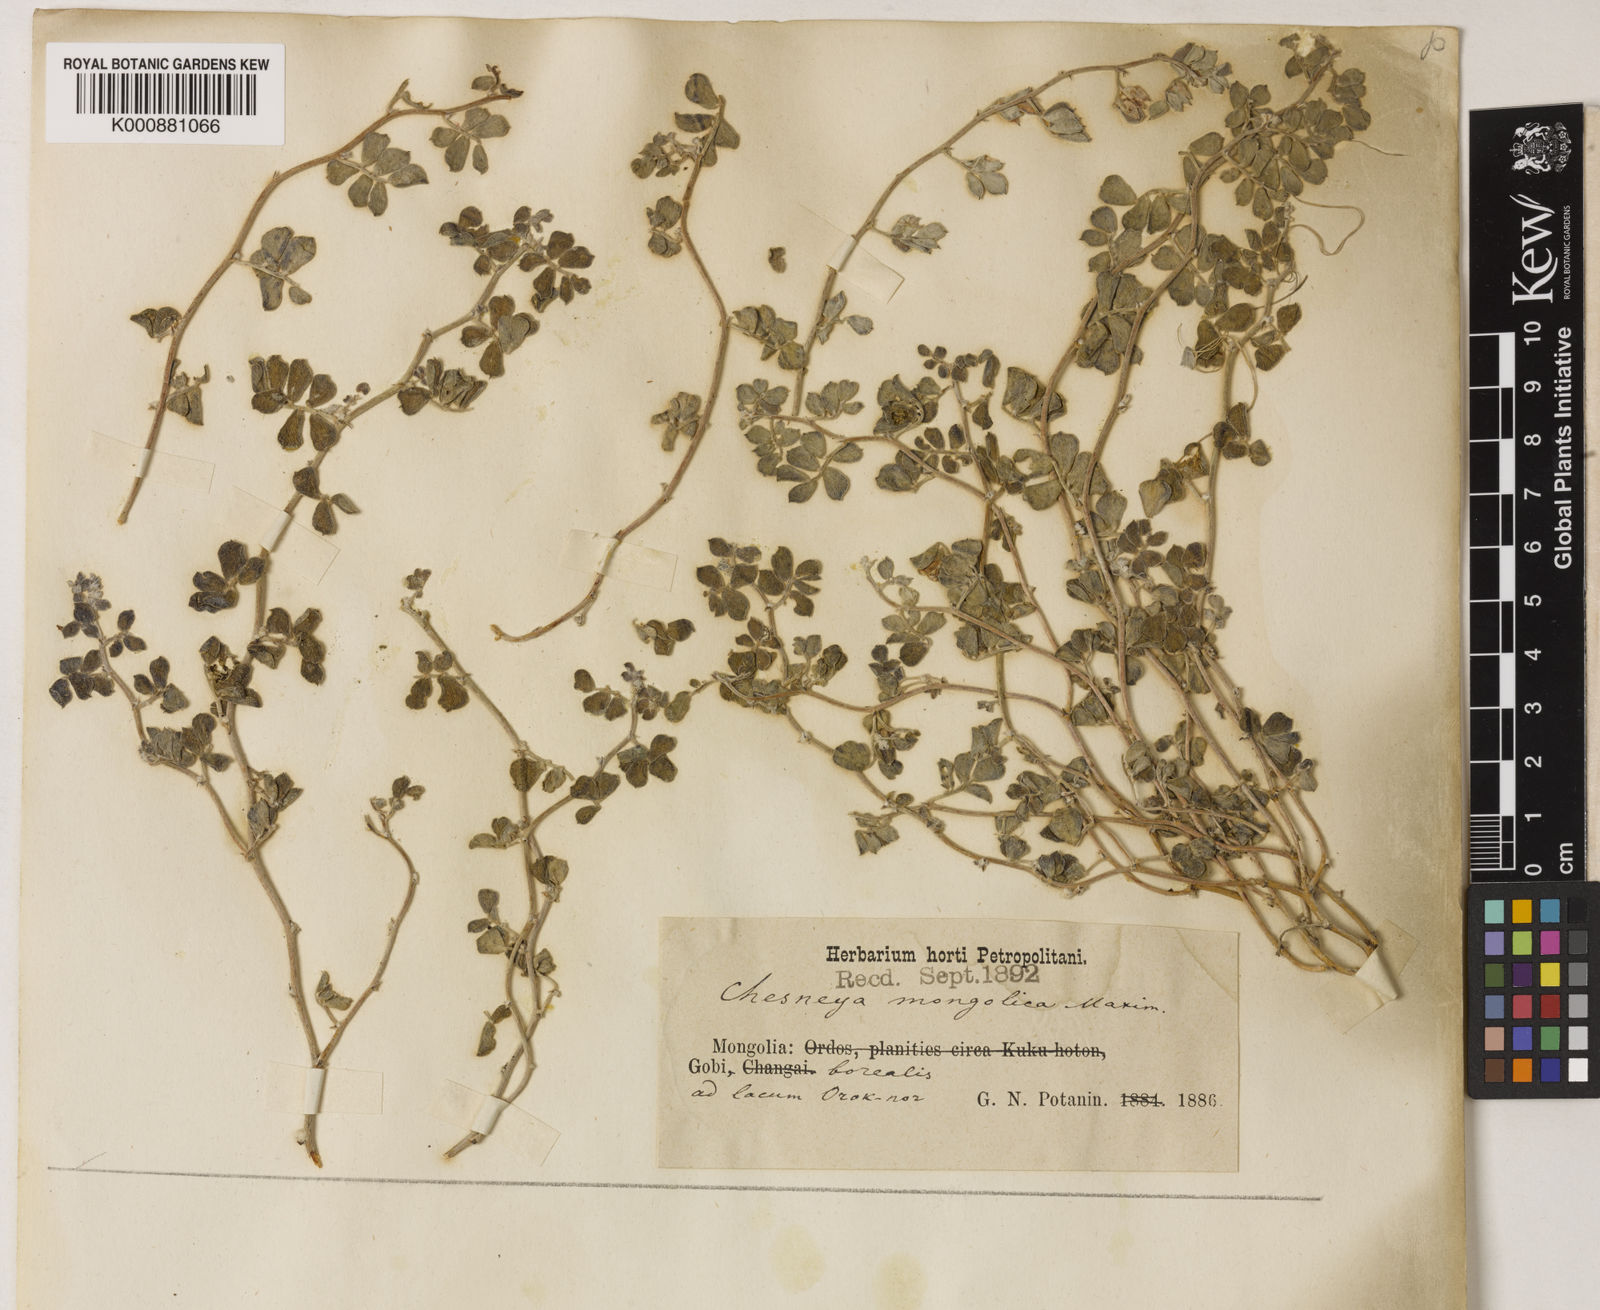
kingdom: Plantae
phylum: Tracheophyta
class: Magnoliopsida
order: Fabales
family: Fabaceae
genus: Chesneya
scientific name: Chesneya mongolica
